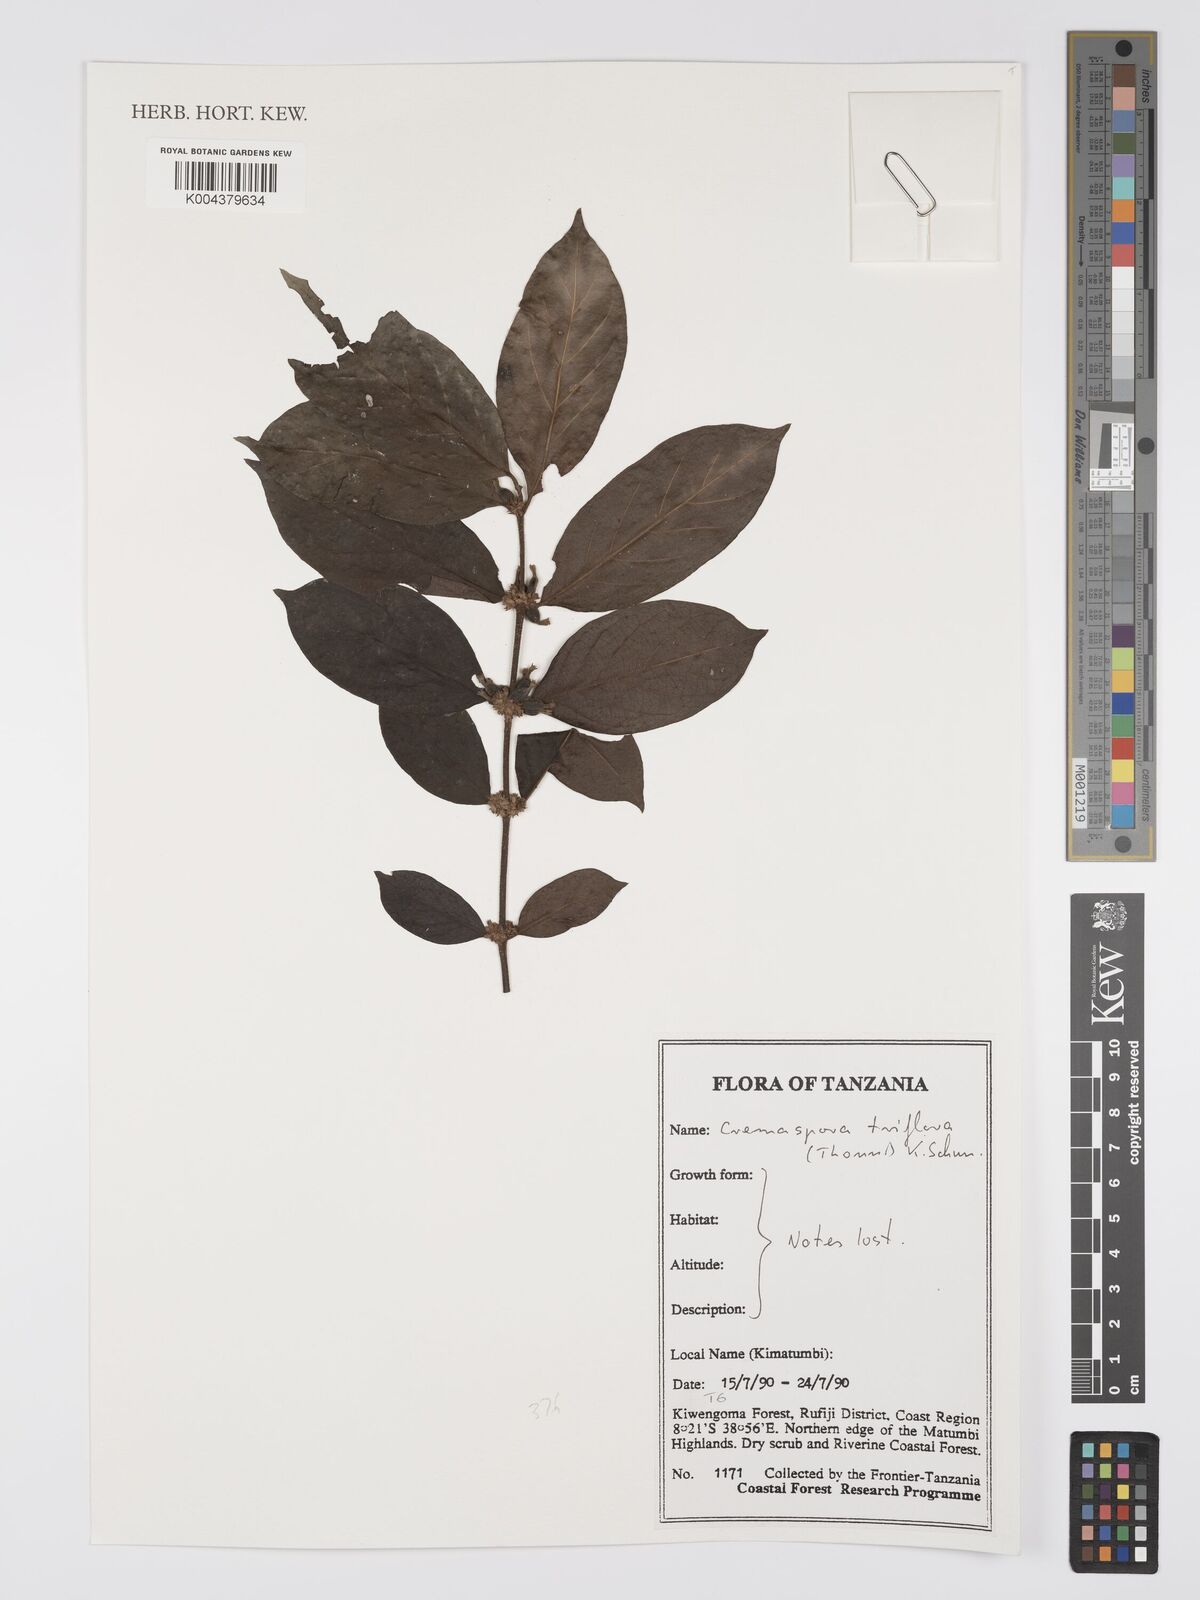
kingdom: Plantae
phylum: Tracheophyta
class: Magnoliopsida
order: Gentianales
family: Rubiaceae
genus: Cremaspora
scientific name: Cremaspora triflora
